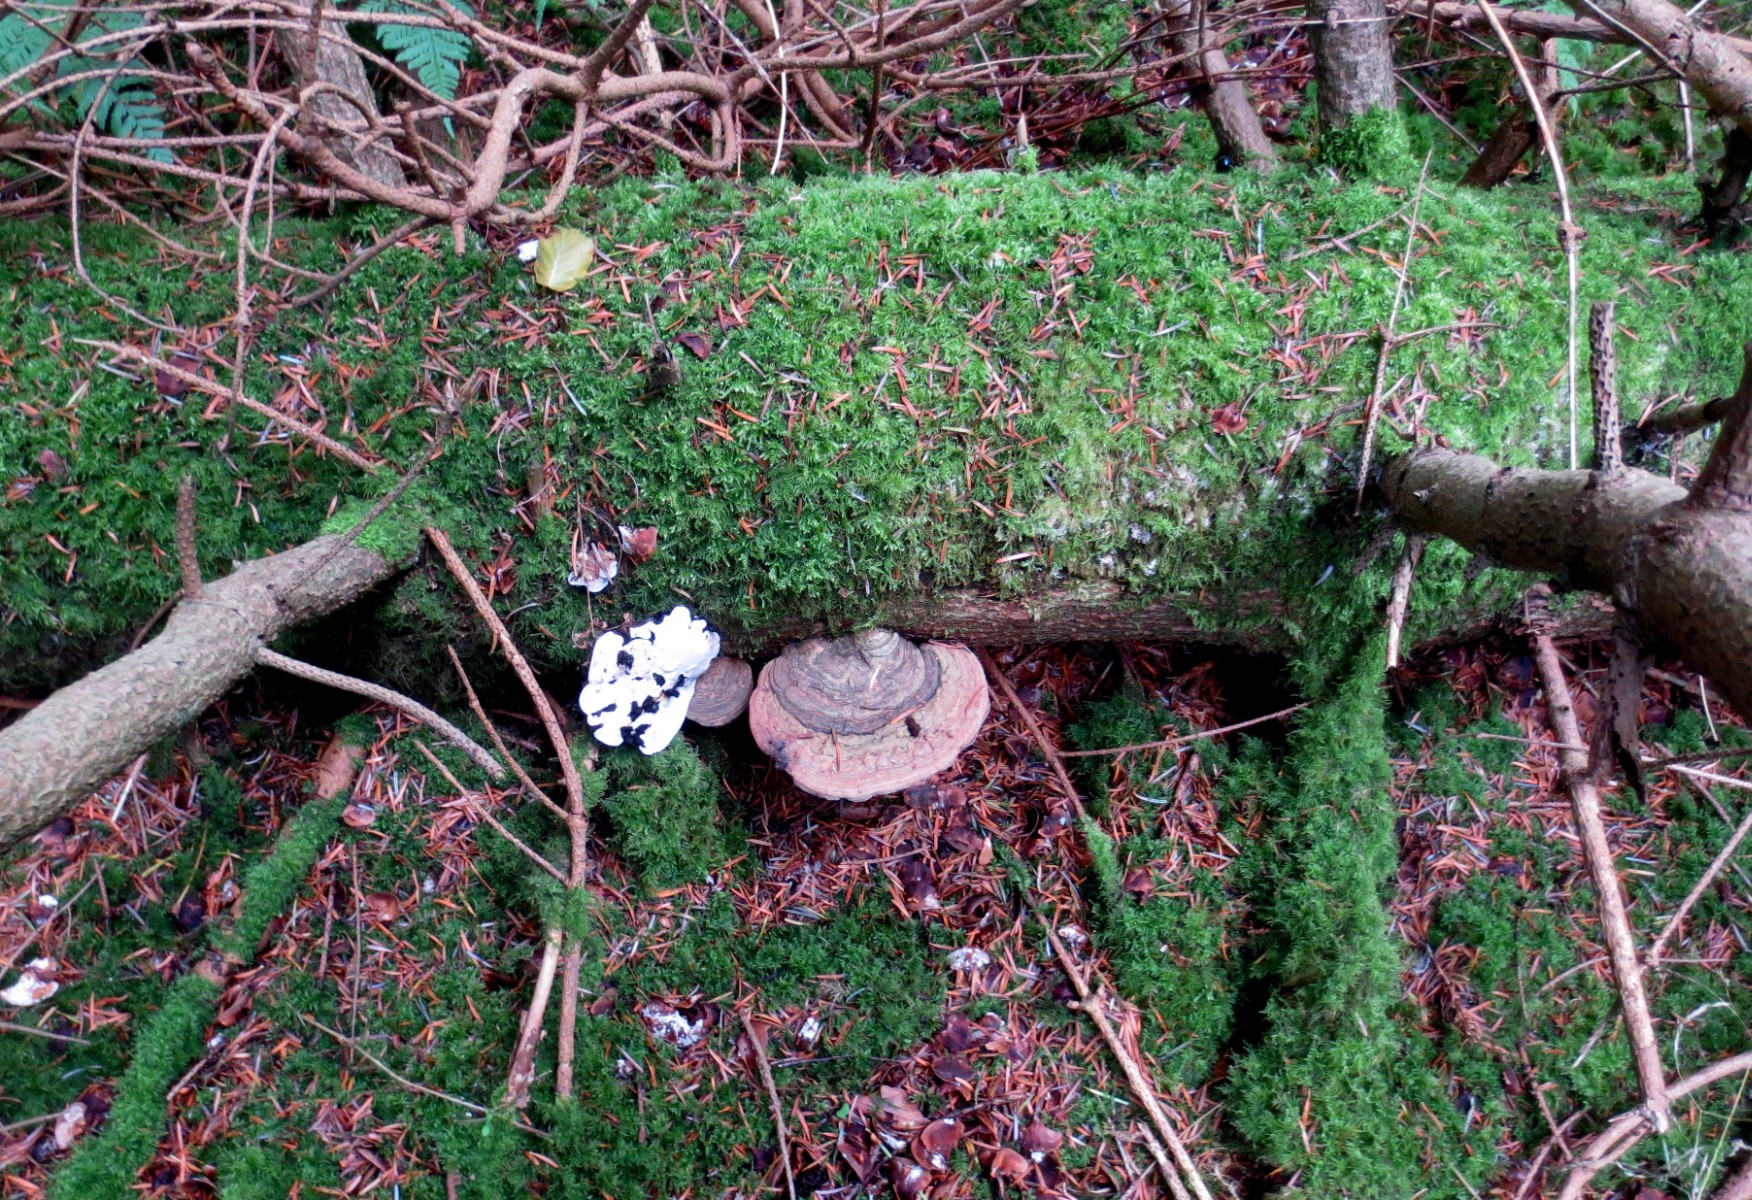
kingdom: Fungi
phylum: Basidiomycota
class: Agaricomycetes
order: Polyporales
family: Polyporaceae
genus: Ganoderma
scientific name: Ganoderma applanatum
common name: flad lakporesvamp
